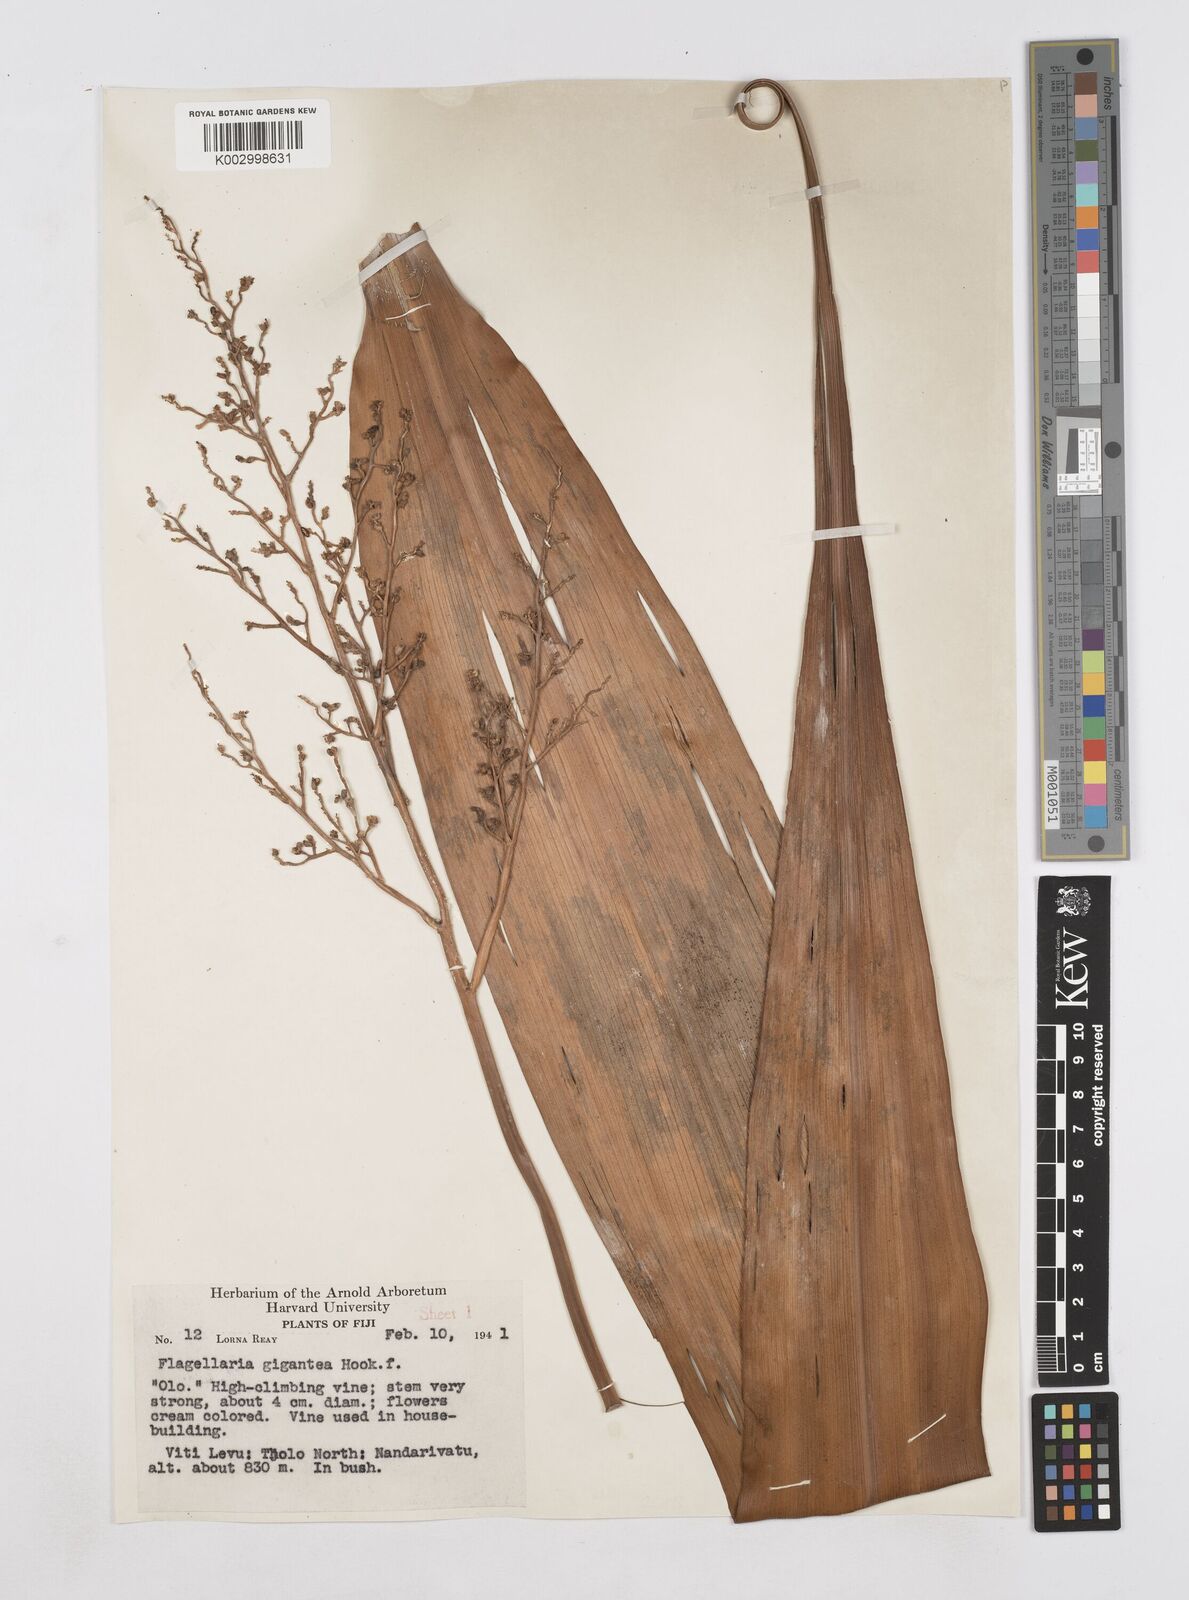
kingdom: Plantae
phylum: Tracheophyta
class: Liliopsida
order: Poales
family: Flagellariaceae
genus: Flagellaria
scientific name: Flagellaria gigantea
